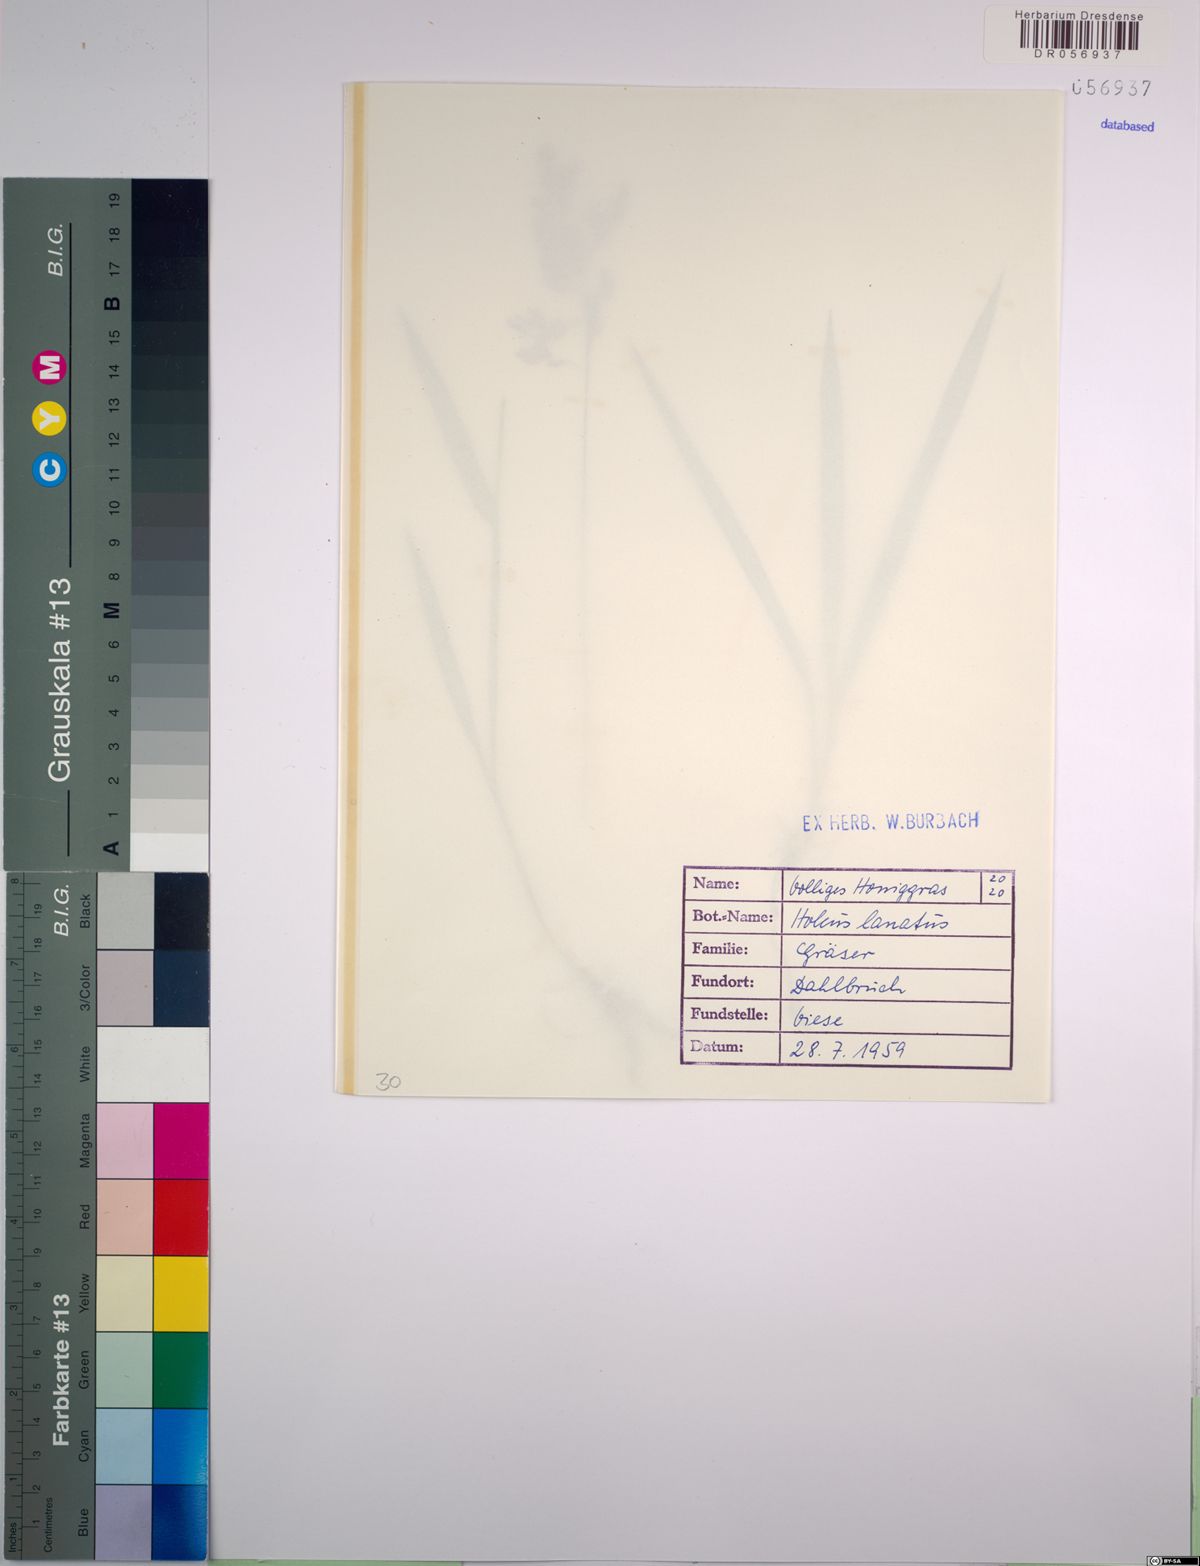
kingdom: Plantae
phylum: Tracheophyta
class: Liliopsida
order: Poales
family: Poaceae
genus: Holcus
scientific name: Holcus lanatus
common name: Yorkshire-fog
